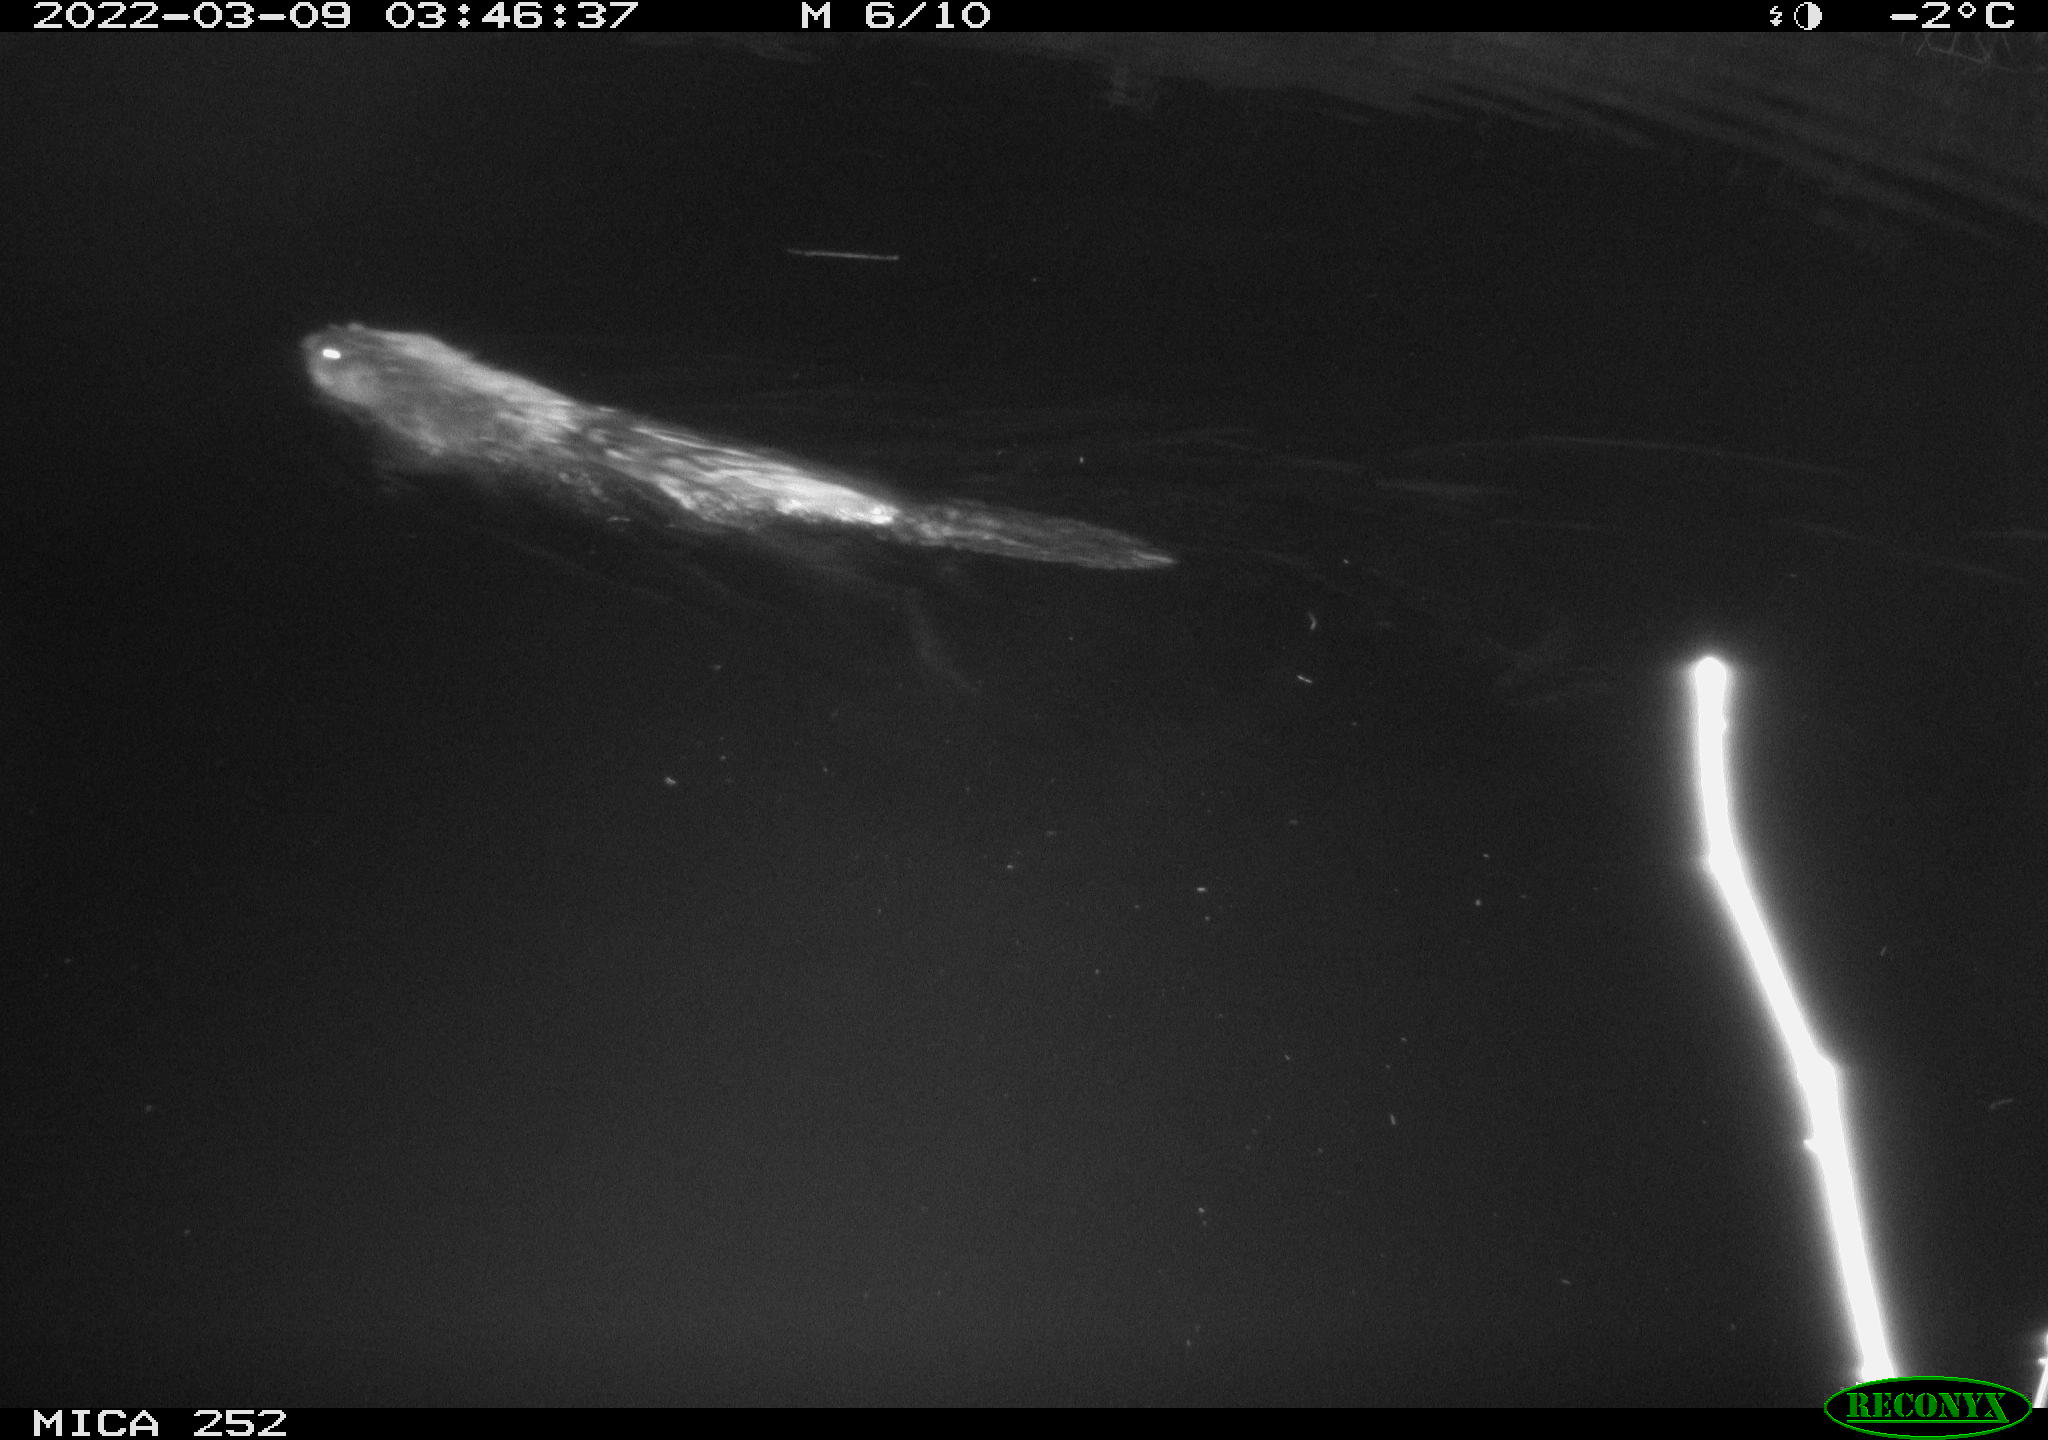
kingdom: Animalia
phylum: Chordata
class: Mammalia
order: Rodentia
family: Castoridae
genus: Castor
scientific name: Castor fiber
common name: Eurasian beaver
